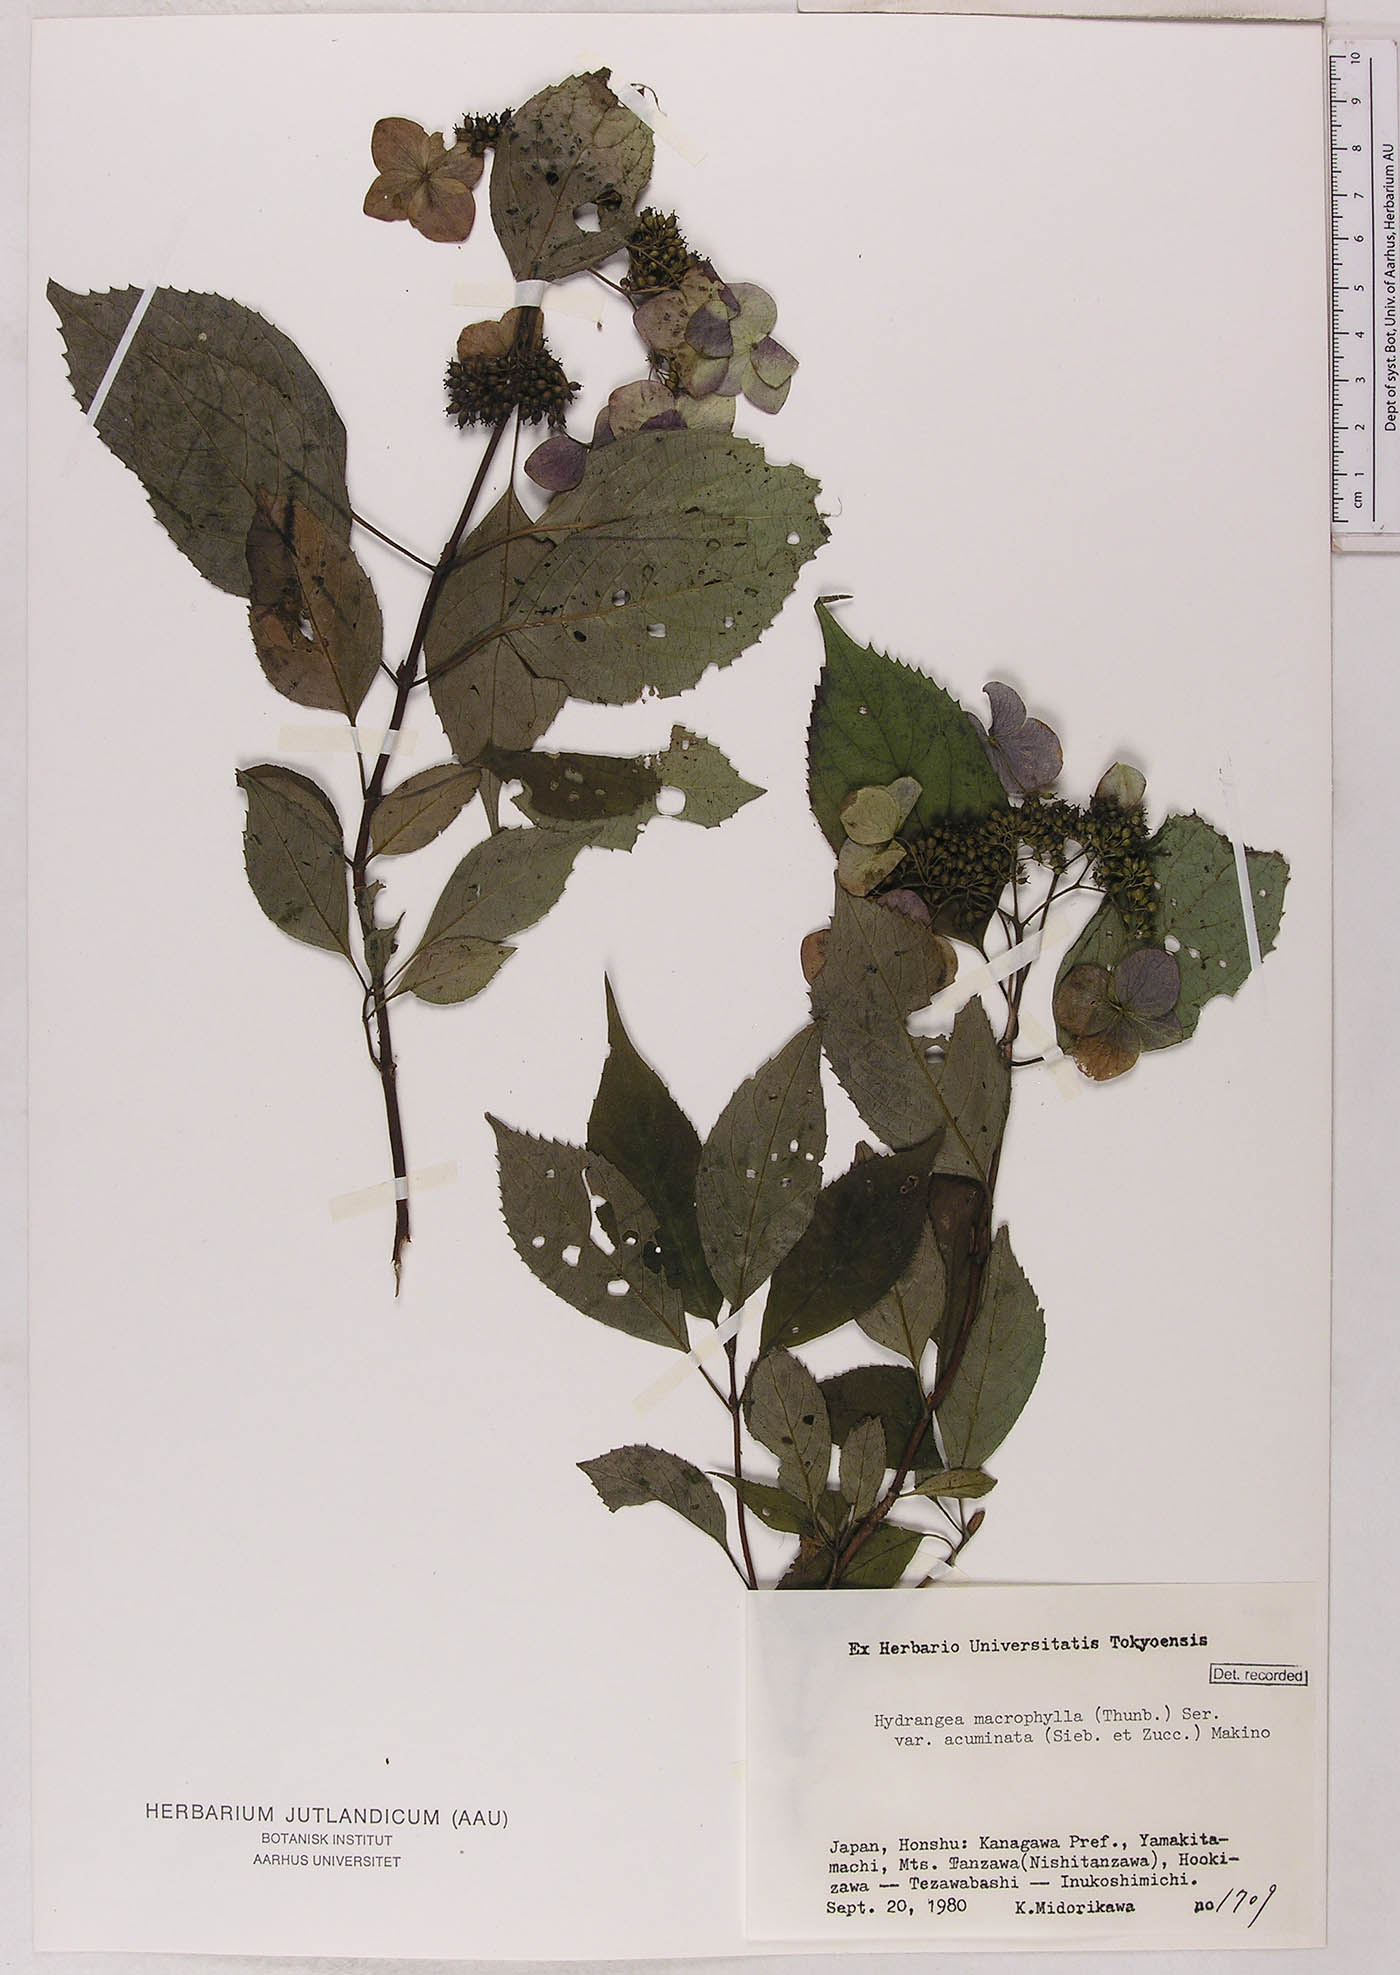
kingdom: Plantae
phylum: Tracheophyta
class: Magnoliopsida
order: Cornales
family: Hydrangeaceae
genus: Hydrangea
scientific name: Hydrangea serrata
